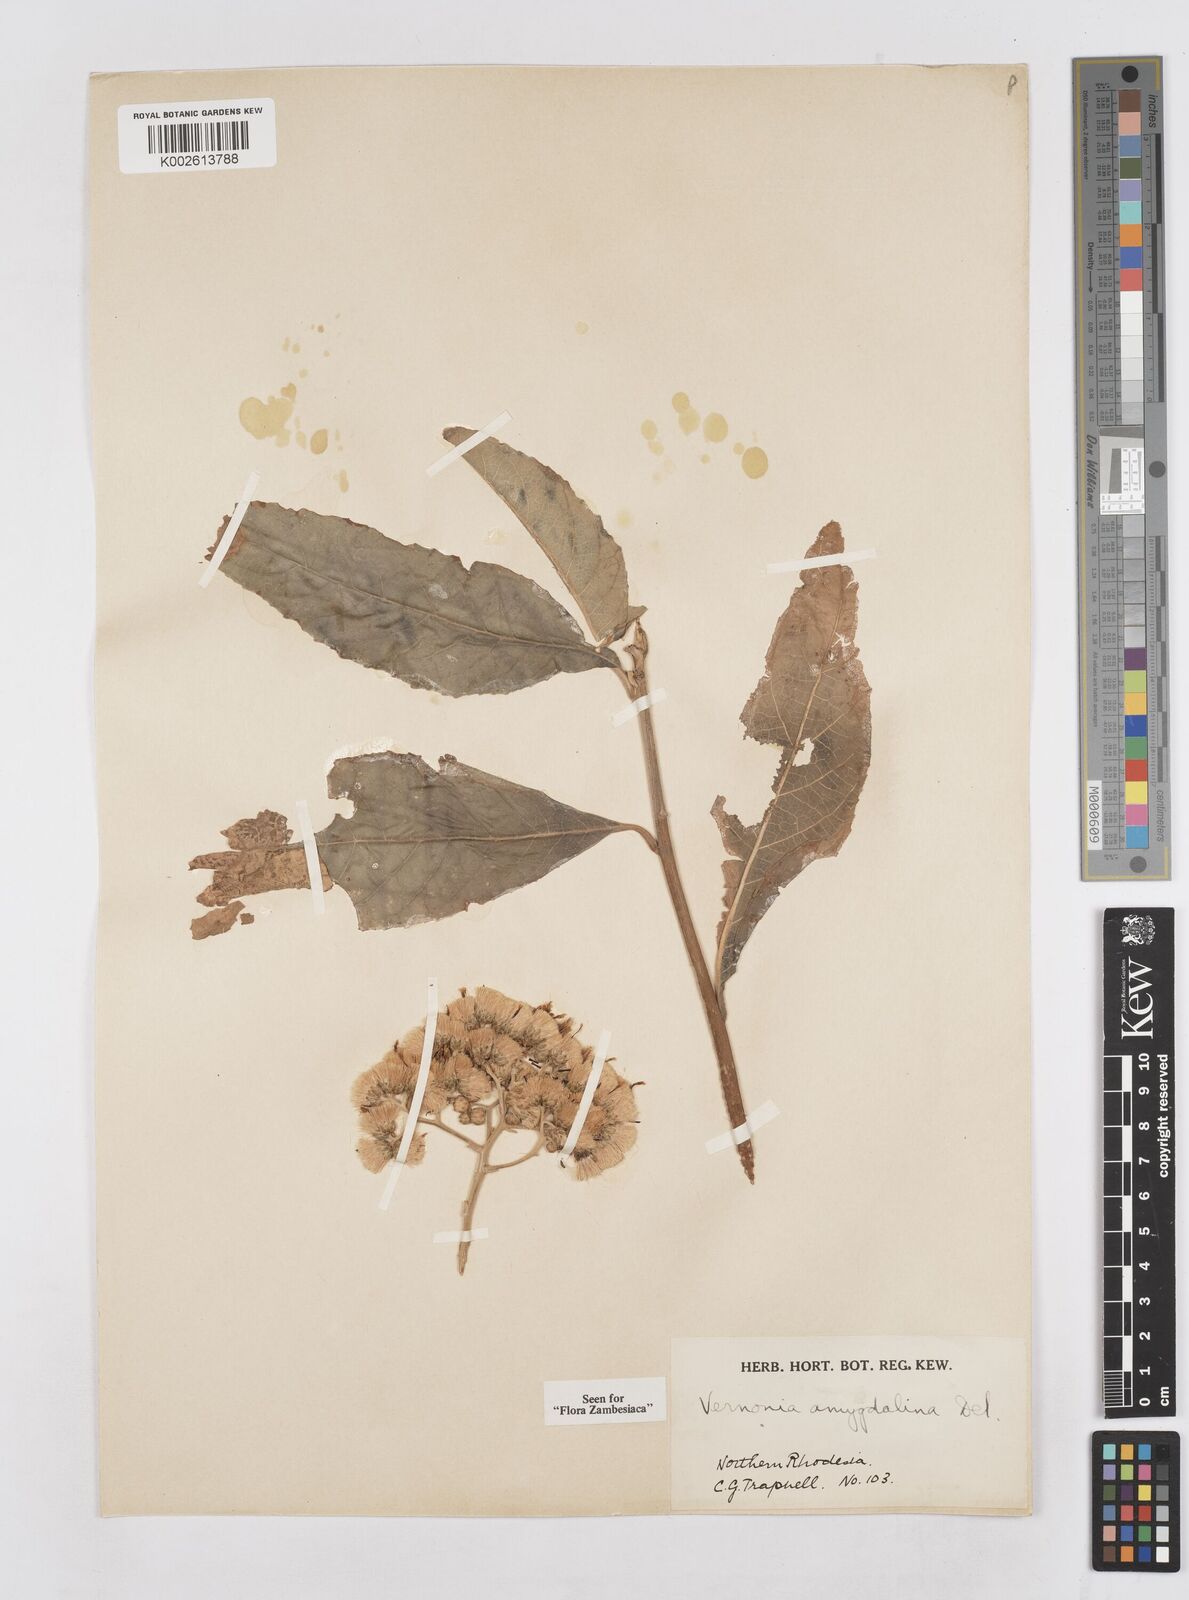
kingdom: Plantae
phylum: Tracheophyta
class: Magnoliopsida
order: Asterales
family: Asteraceae
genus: Gymnanthemum
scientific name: Gymnanthemum amygdalinum
